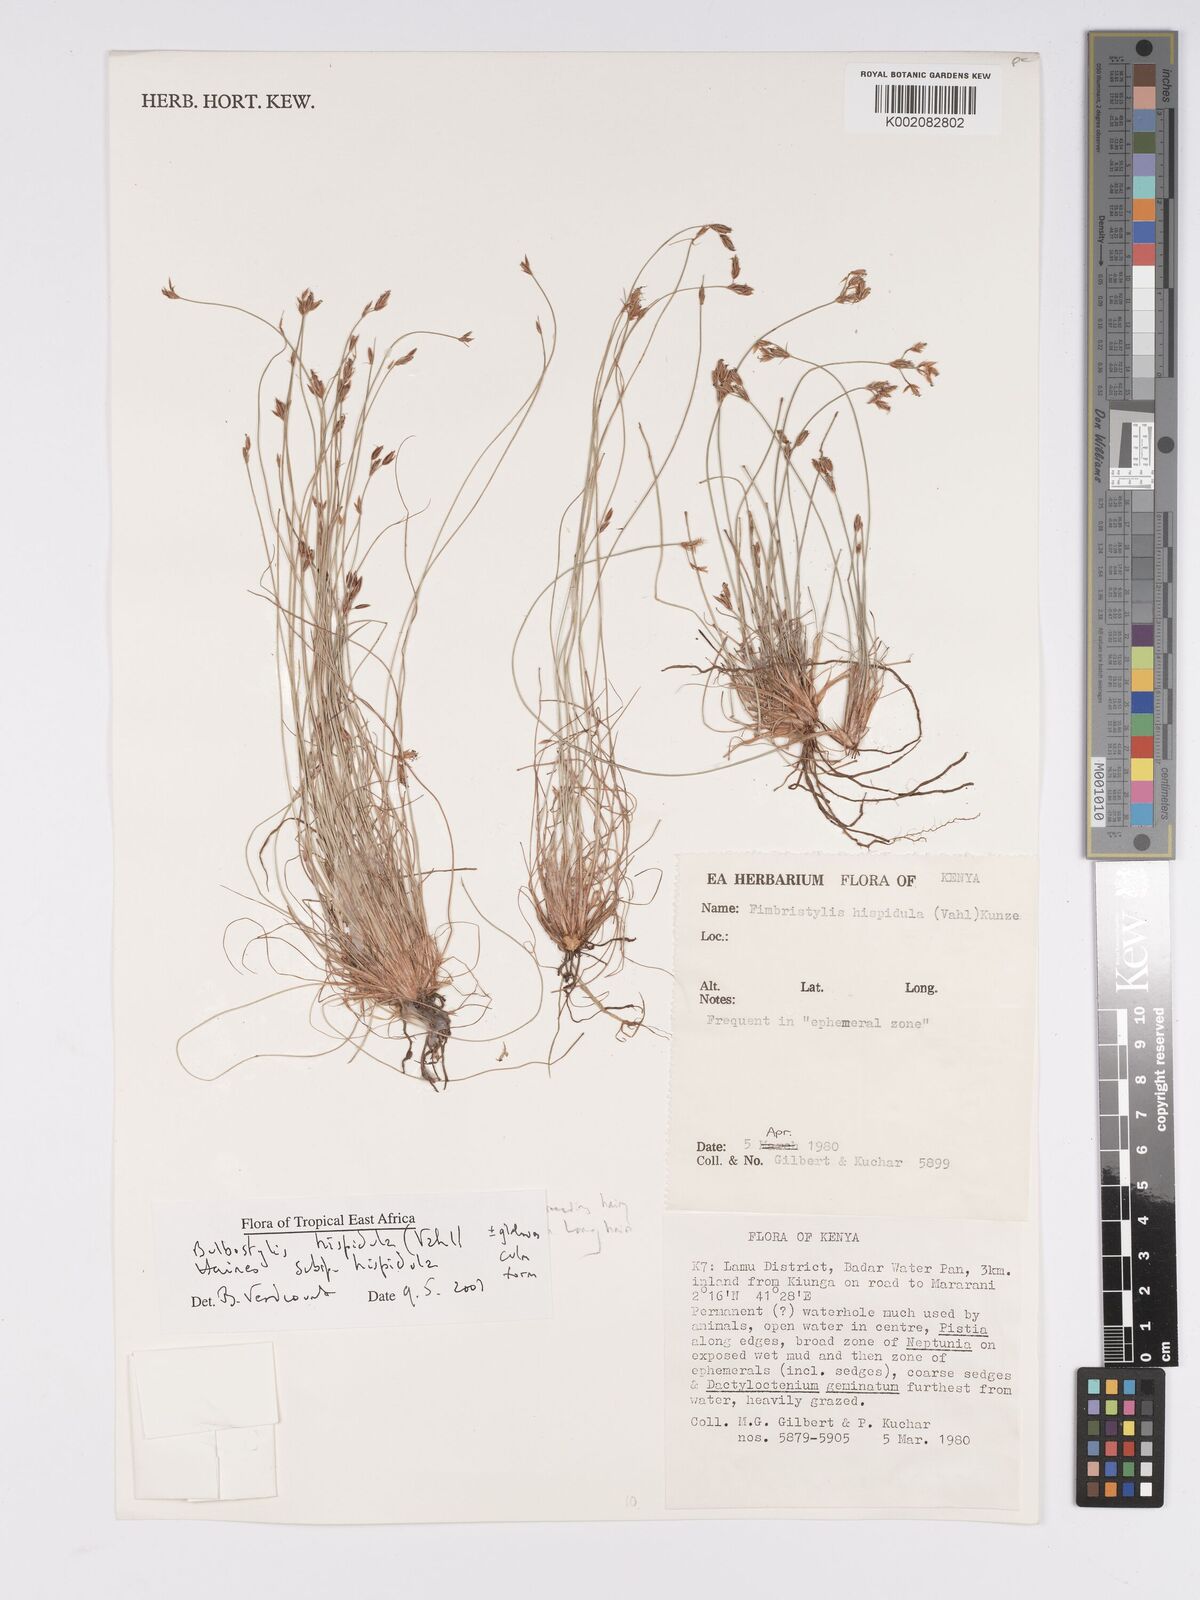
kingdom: Plantae
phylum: Tracheophyta
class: Liliopsida
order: Poales
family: Cyperaceae
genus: Bulbostylis
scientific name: Bulbostylis hispidula
